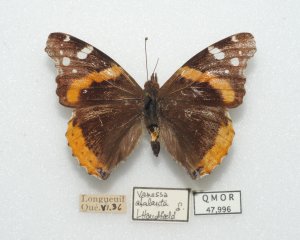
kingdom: Animalia
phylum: Arthropoda
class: Insecta
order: Lepidoptera
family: Nymphalidae
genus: Vanessa
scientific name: Vanessa atalanta
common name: Red Admiral
